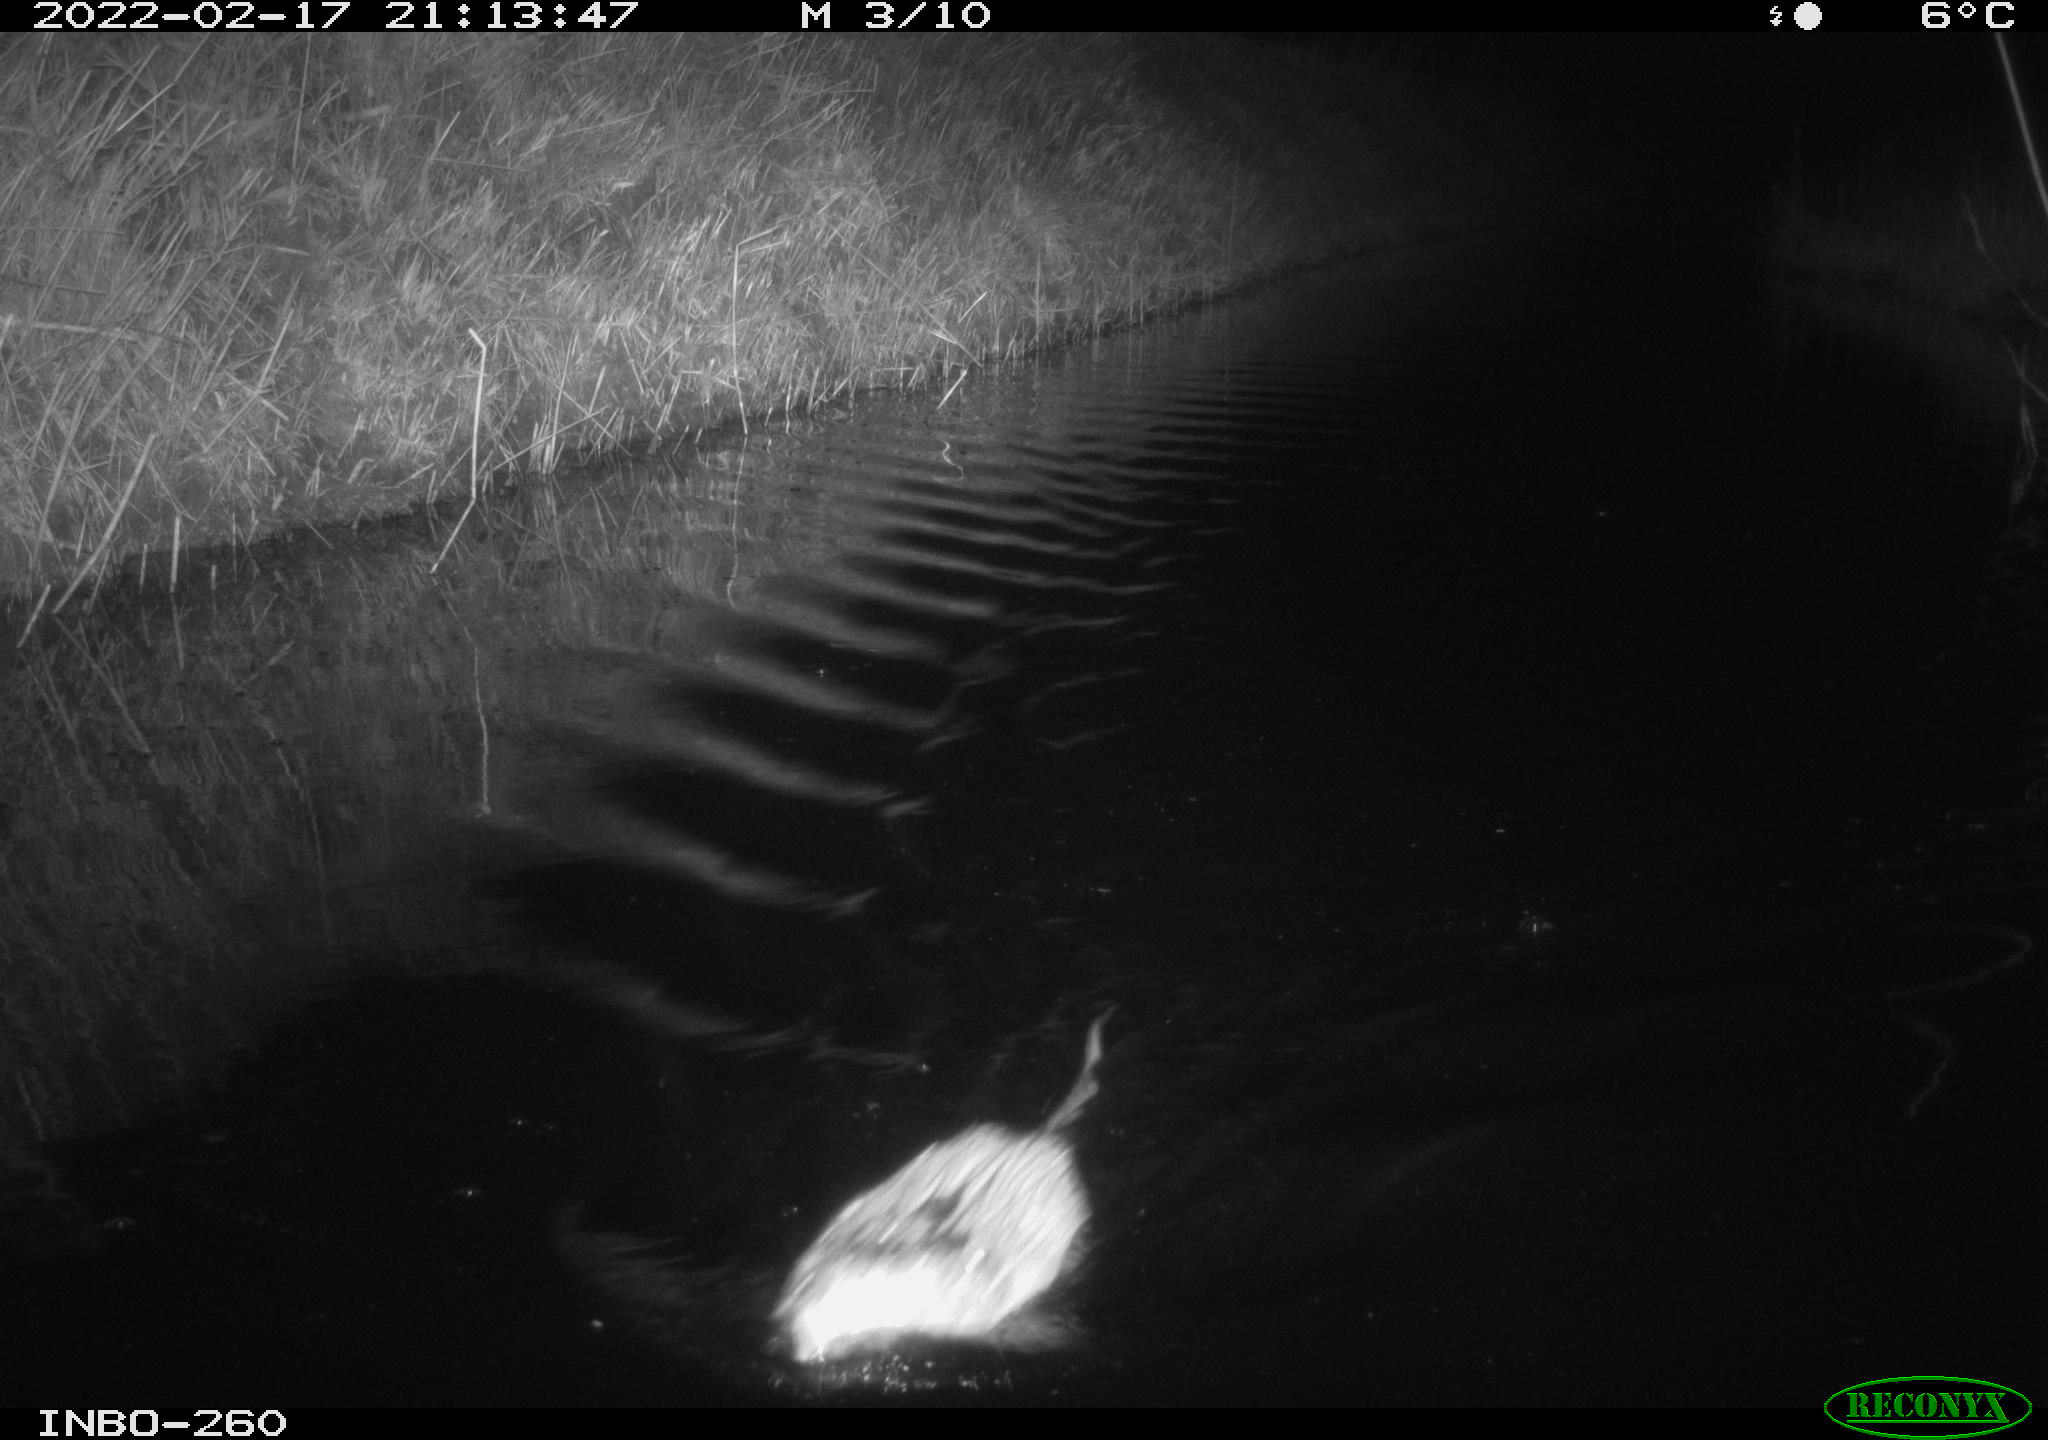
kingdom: Animalia
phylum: Chordata
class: Mammalia
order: Rodentia
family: Cricetidae
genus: Ondatra
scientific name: Ondatra zibethicus
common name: Muskrat
